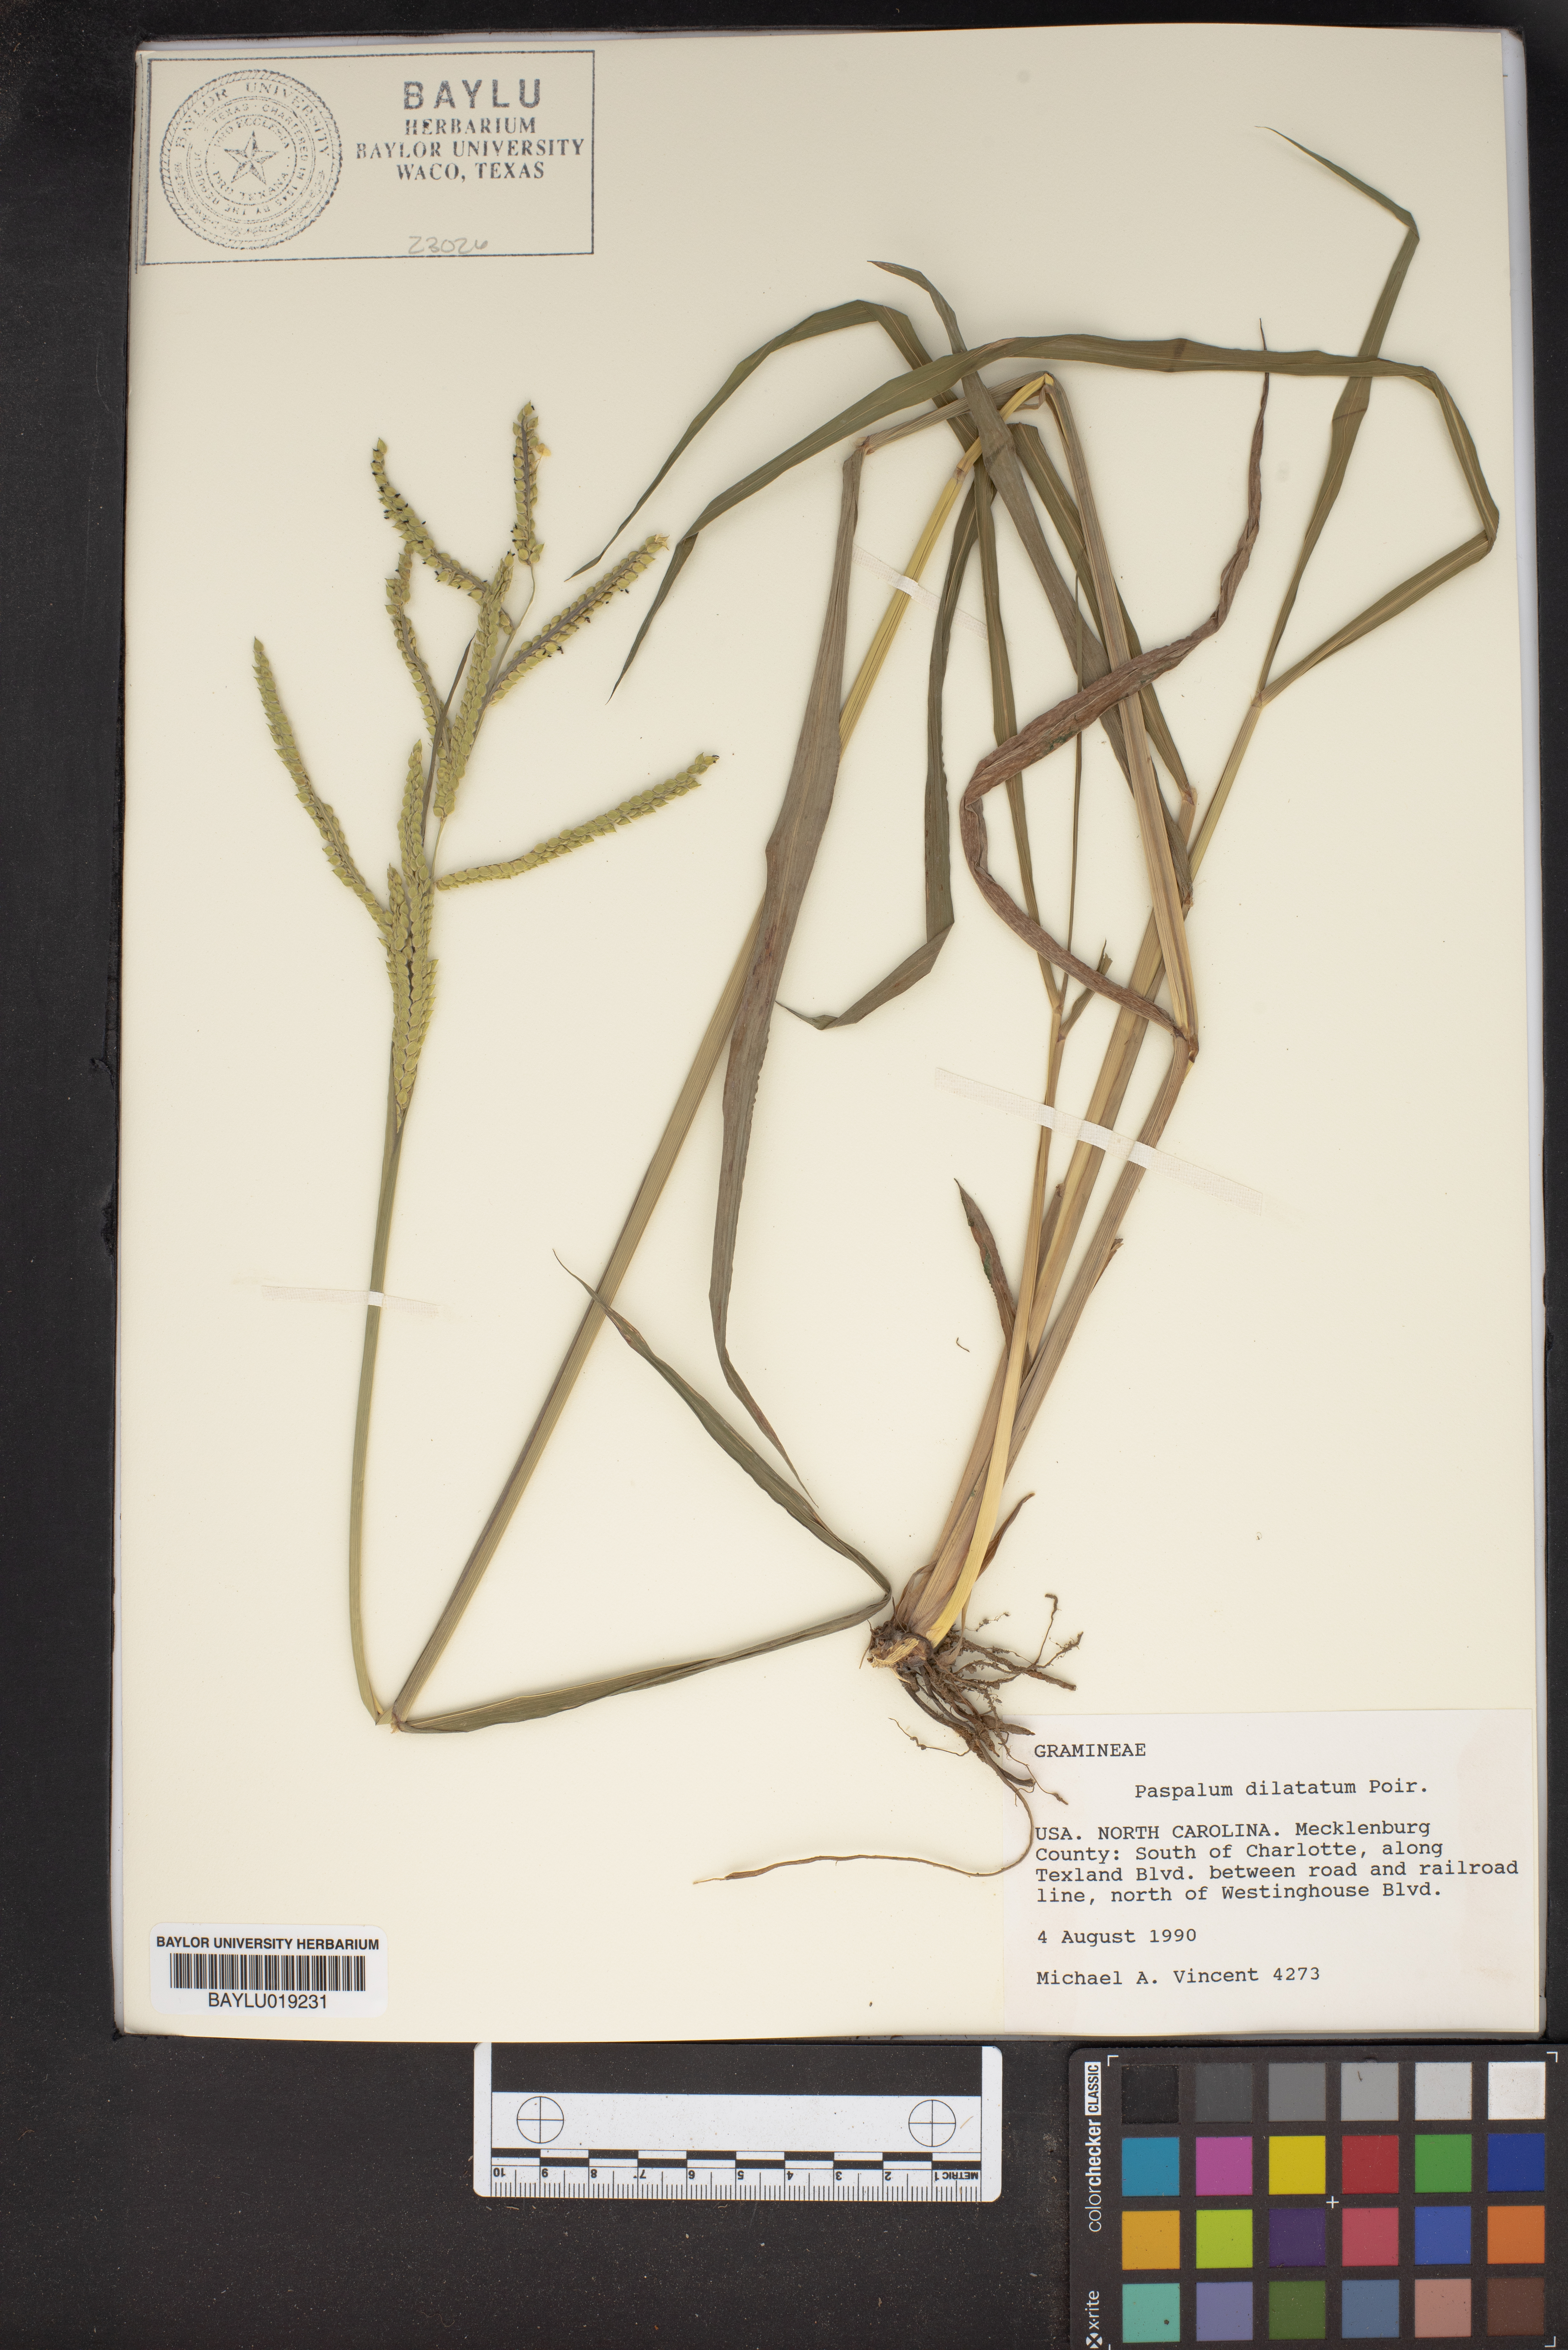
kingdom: Plantae
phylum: Tracheophyta
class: Liliopsida
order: Poales
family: Poaceae
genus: Paspalum
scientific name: Paspalum dilatatum
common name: Dallisgrass
